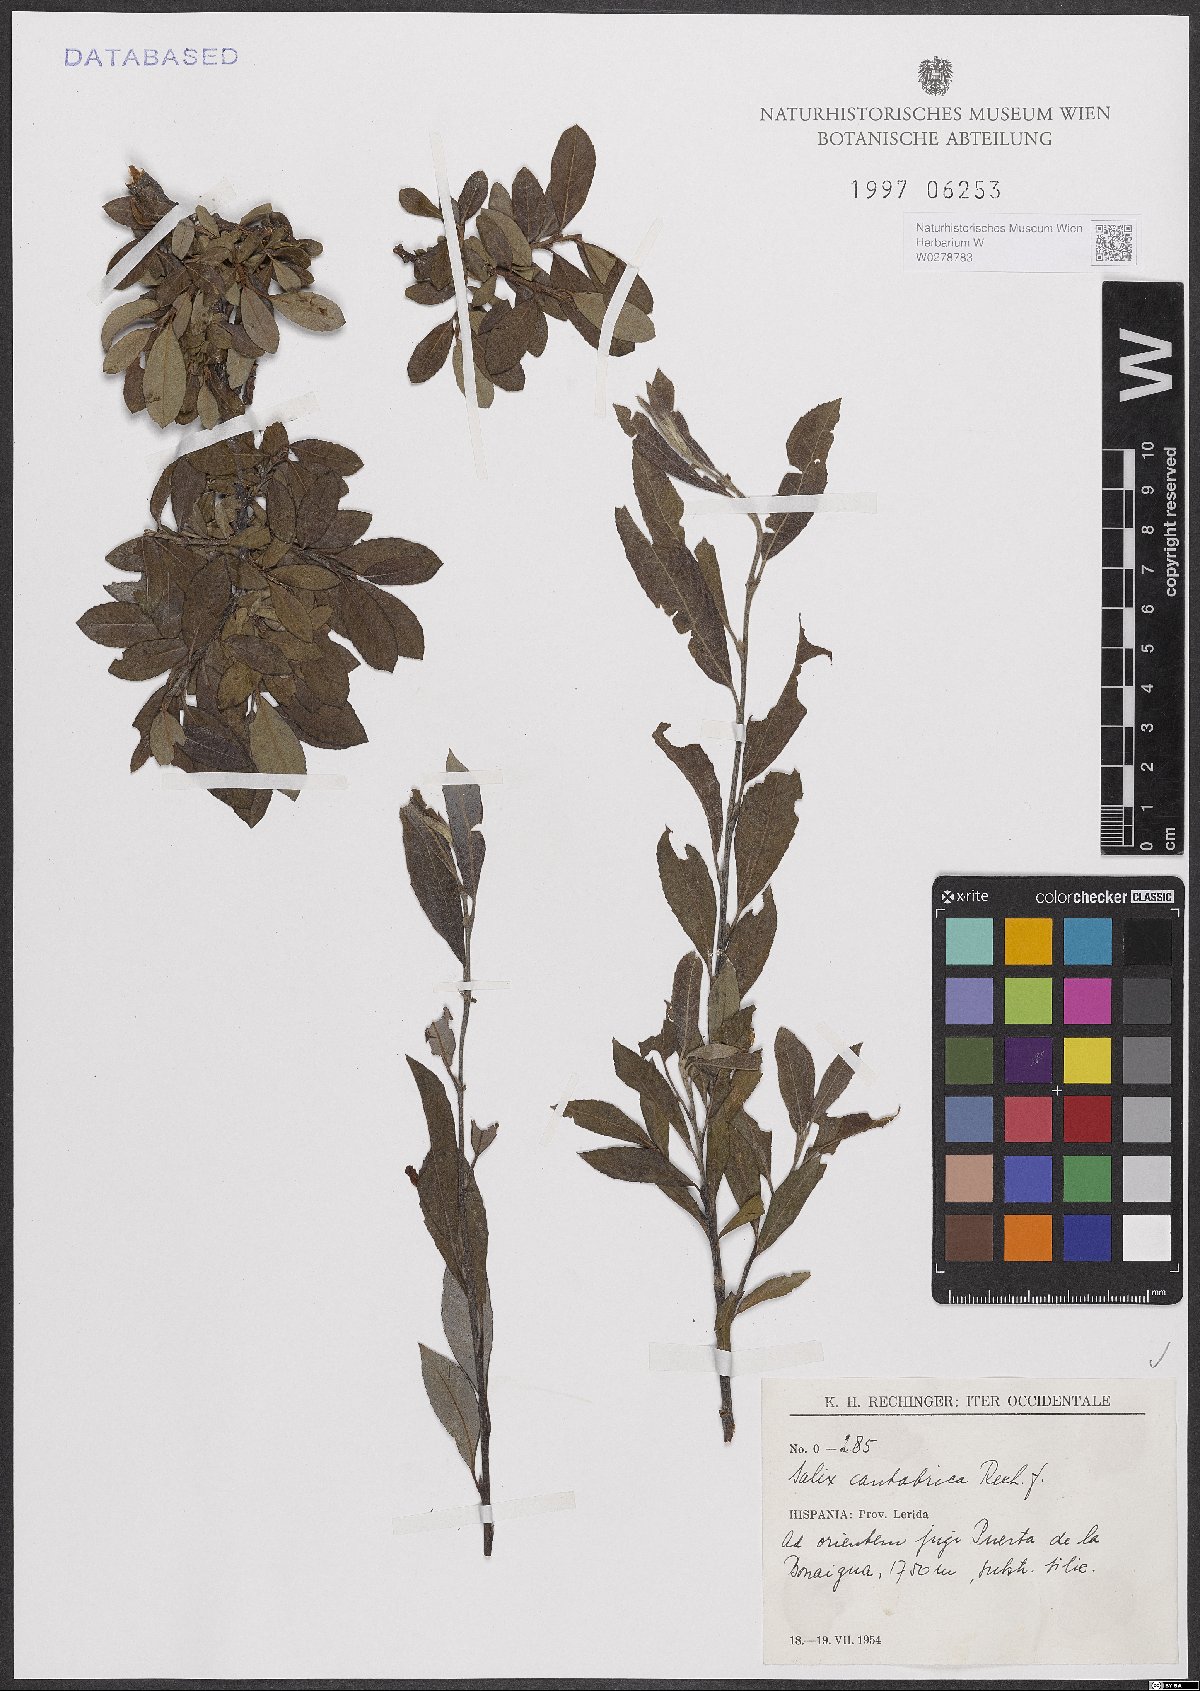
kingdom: Plantae
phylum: Tracheophyta
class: Magnoliopsida
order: Malpighiales
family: Salicaceae
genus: Salix
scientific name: Salix cantabrica
